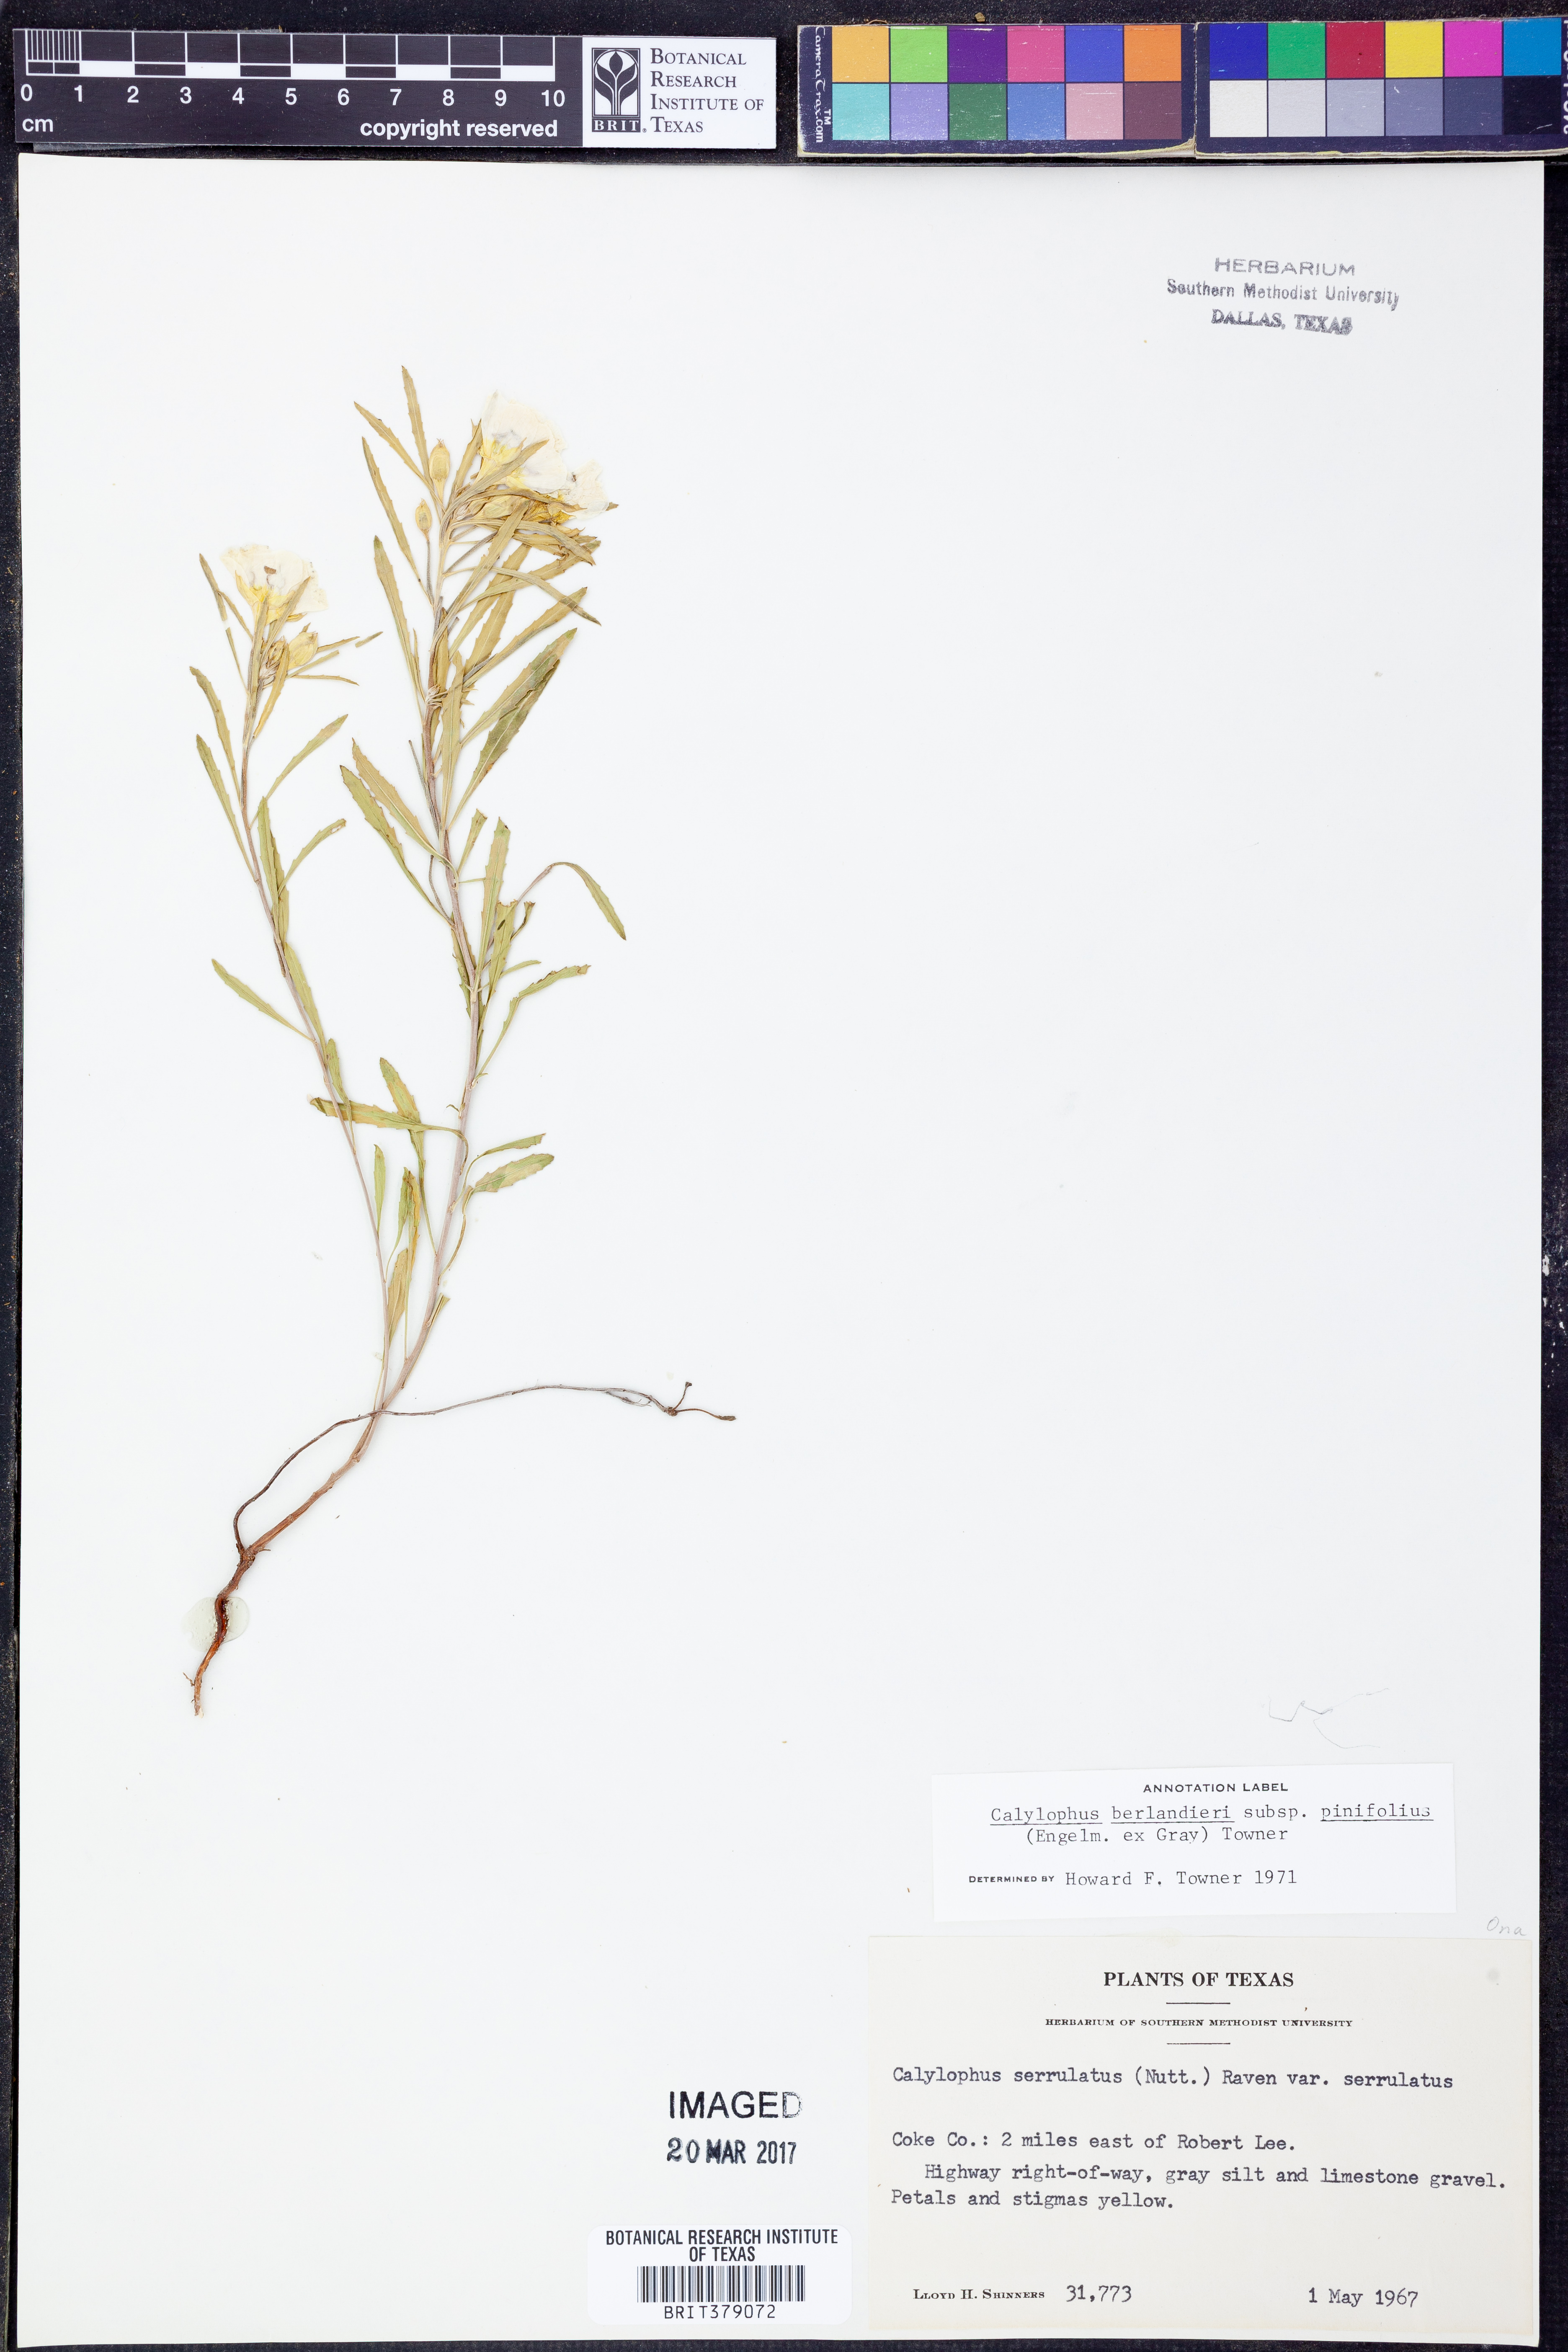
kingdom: Plantae
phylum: Tracheophyta
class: Magnoliopsida
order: Myrtales
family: Onagraceae
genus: Oenothera
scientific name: Oenothera capillifolia
